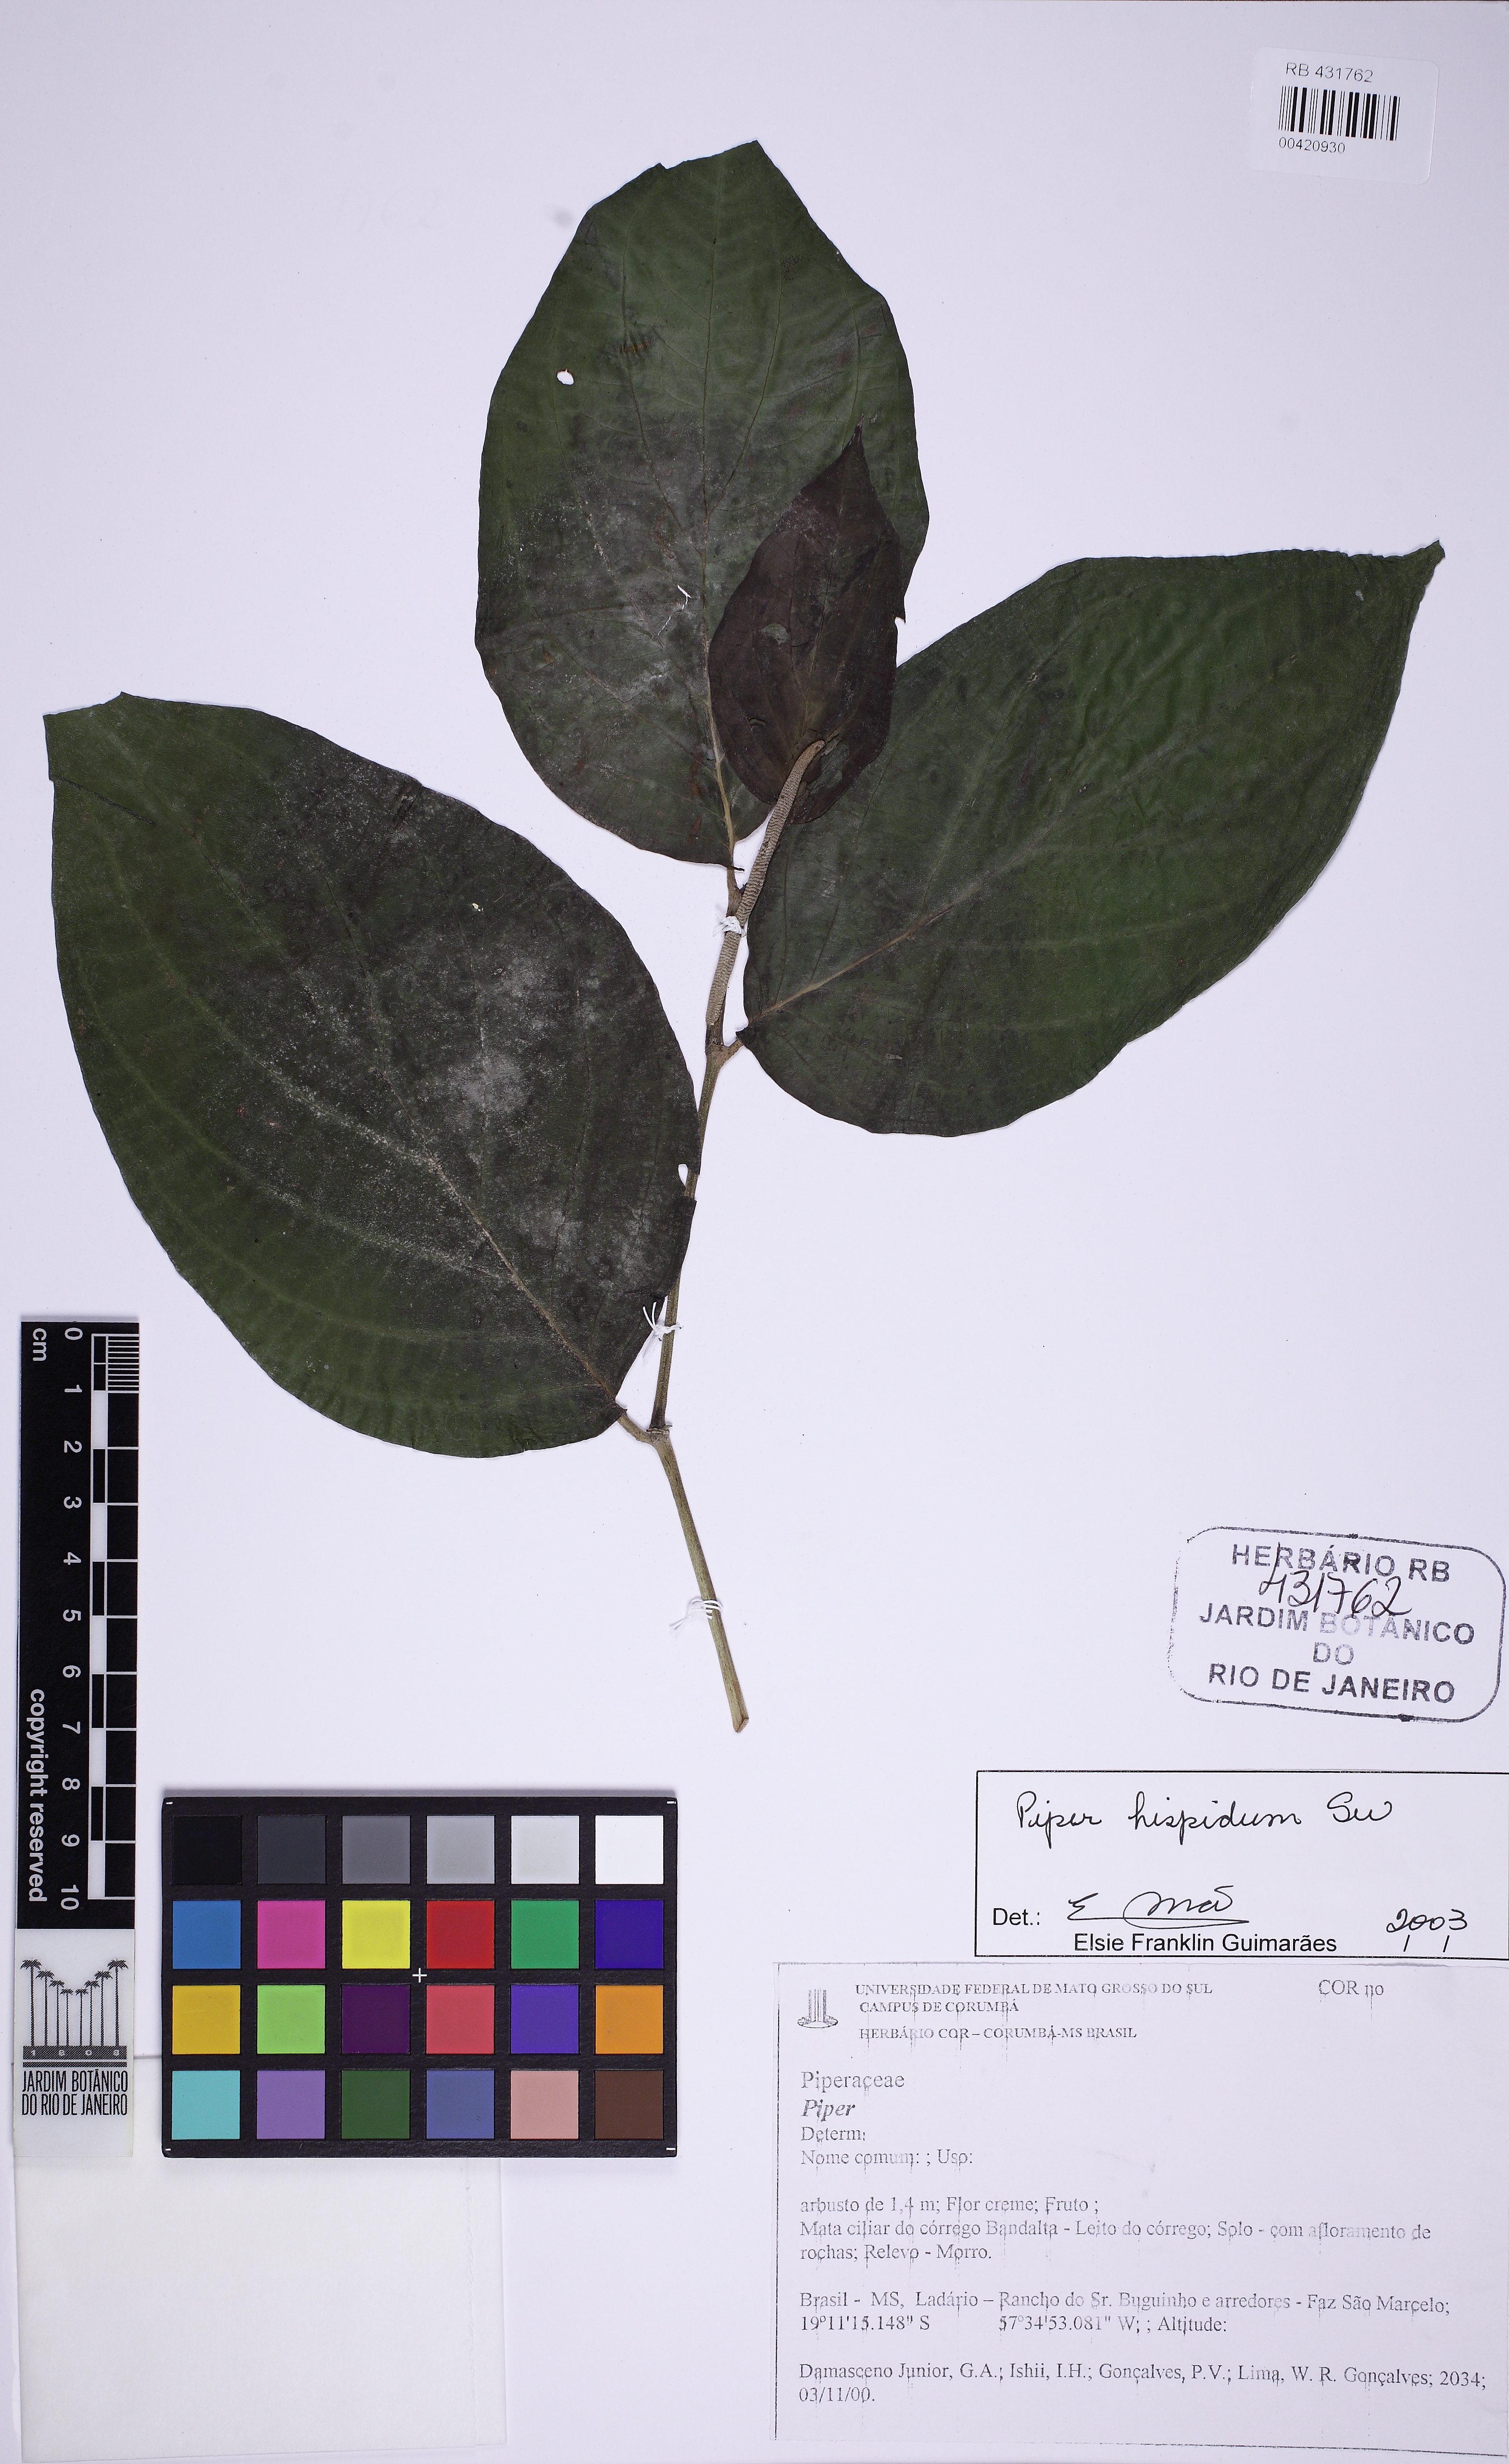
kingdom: Plantae
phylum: Tracheophyta
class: Magnoliopsida
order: Piperales
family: Piperaceae
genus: Piper
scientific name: Piper hispidum
